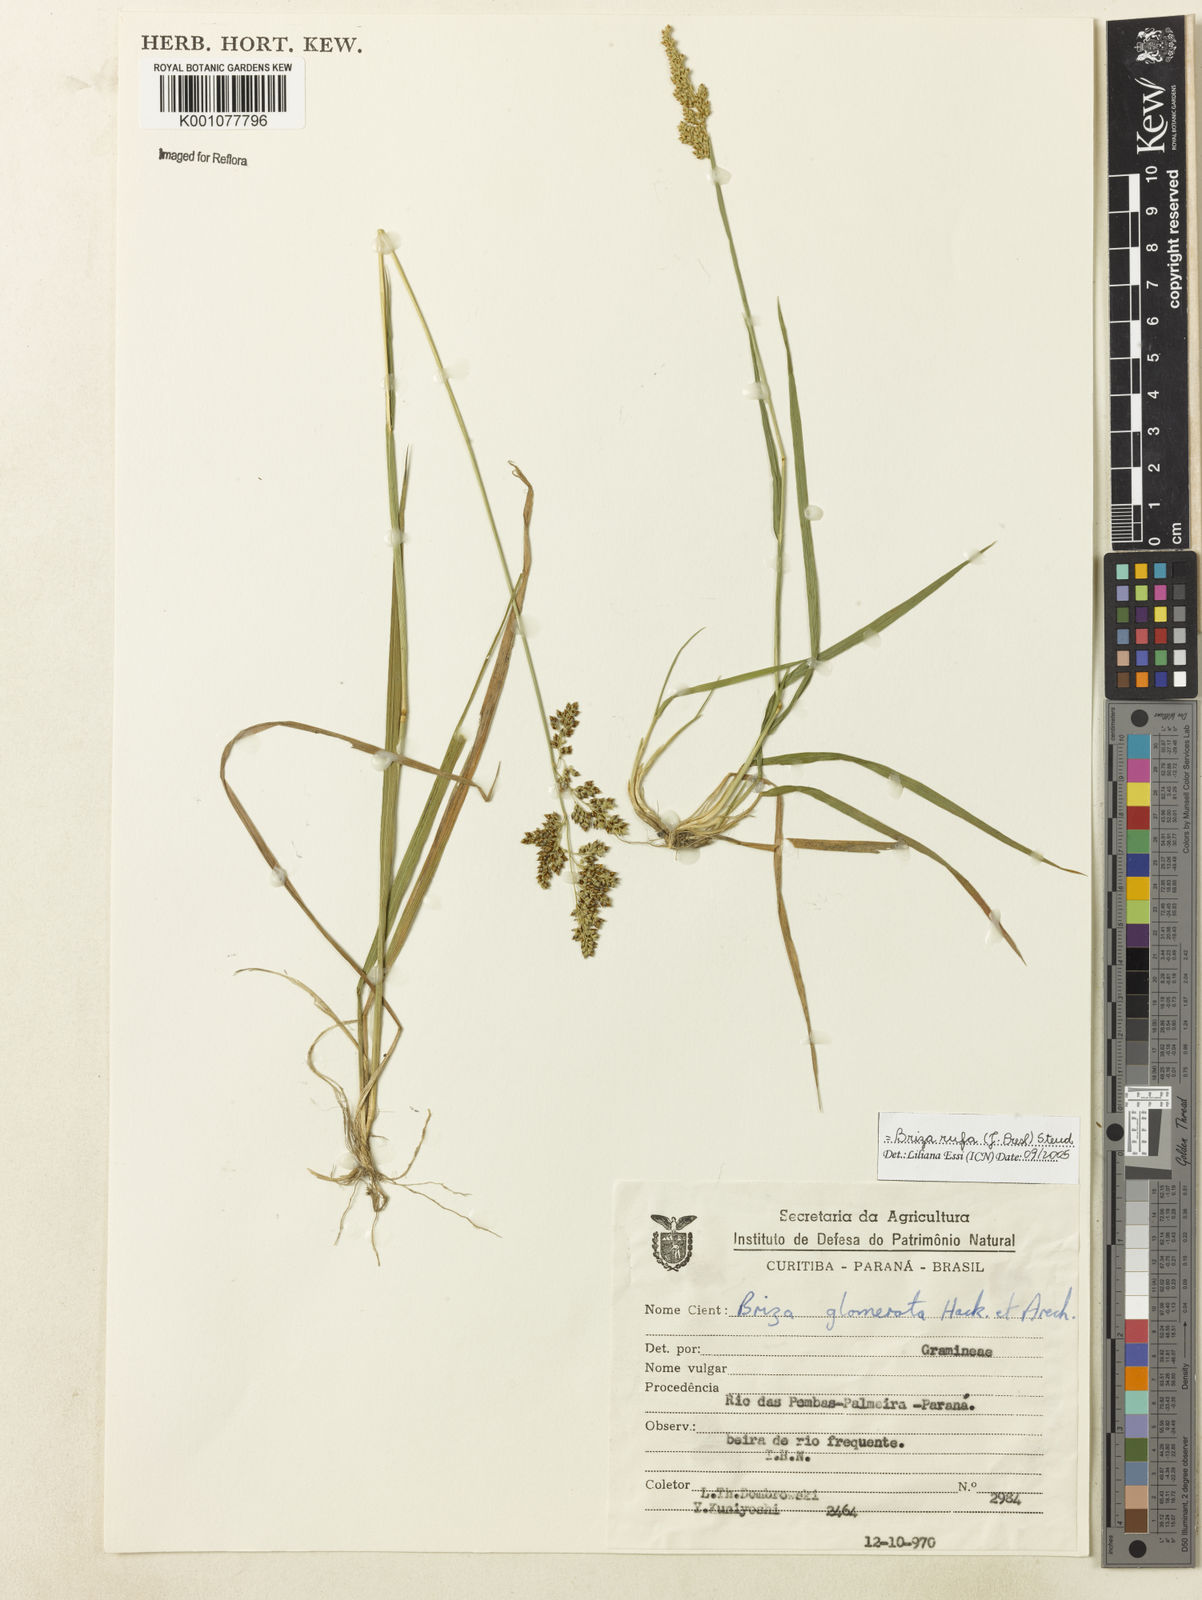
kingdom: Plantae
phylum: Tracheophyta
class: Liliopsida
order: Poales
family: Poaceae
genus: Lombardochloa
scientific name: Lombardochloa rufa
